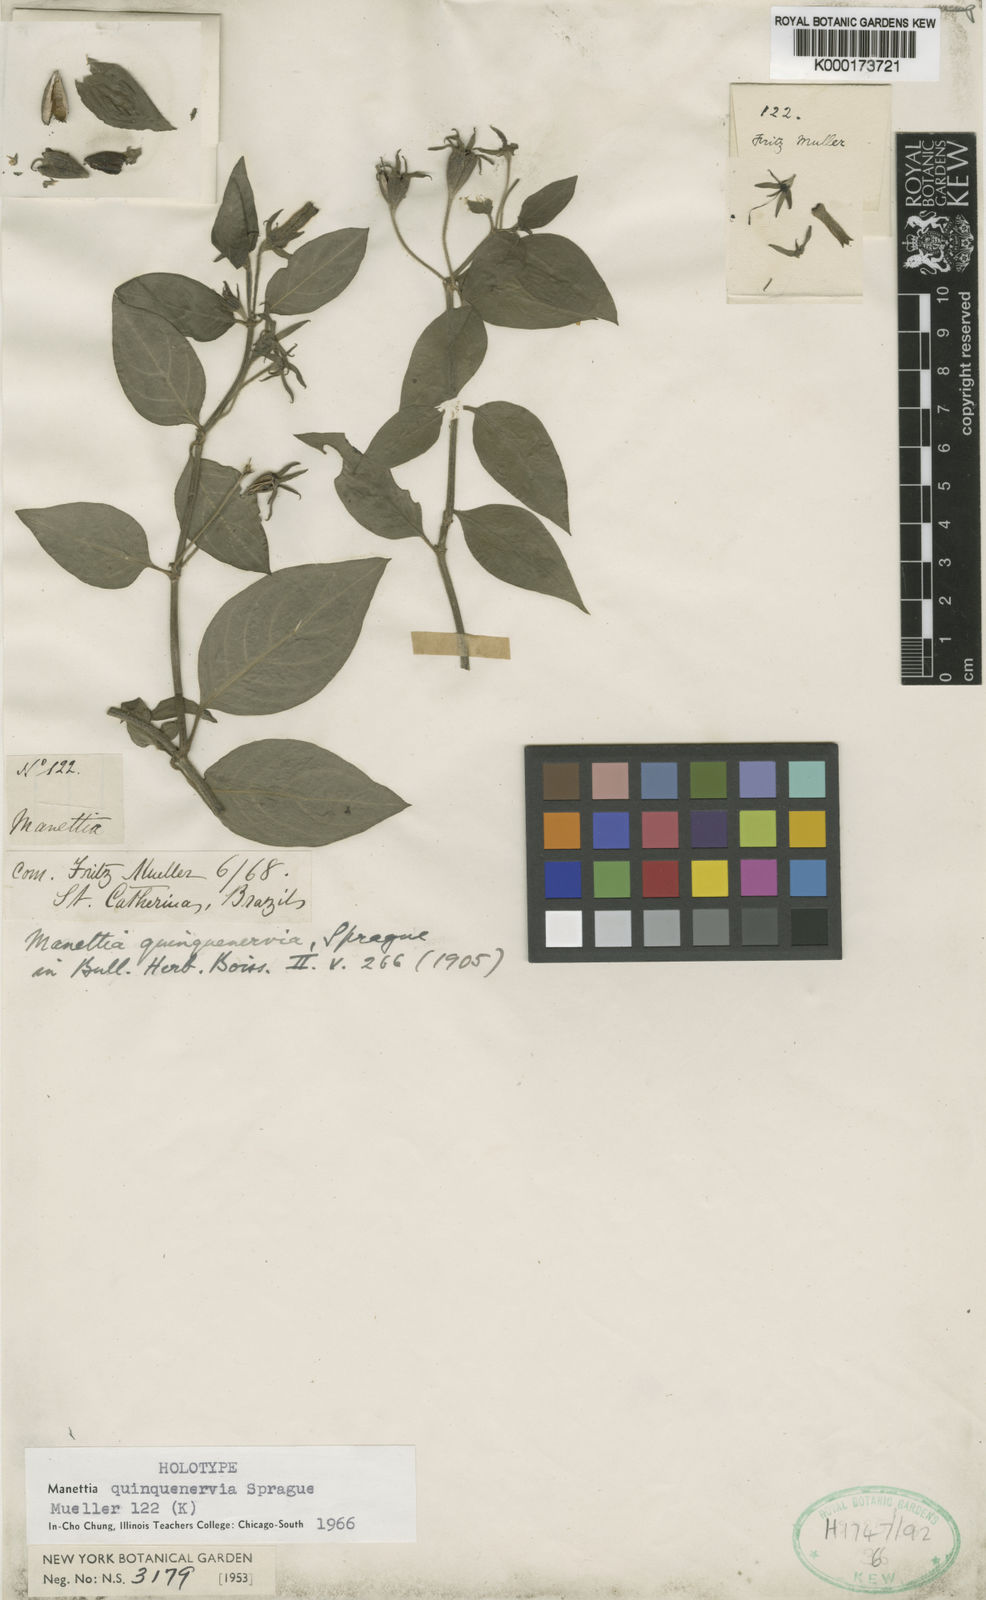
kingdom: Plantae
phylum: Tracheophyta
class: Magnoliopsida
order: Gentianales
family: Rubiaceae
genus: Manettia
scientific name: Manettia paraguariensis
